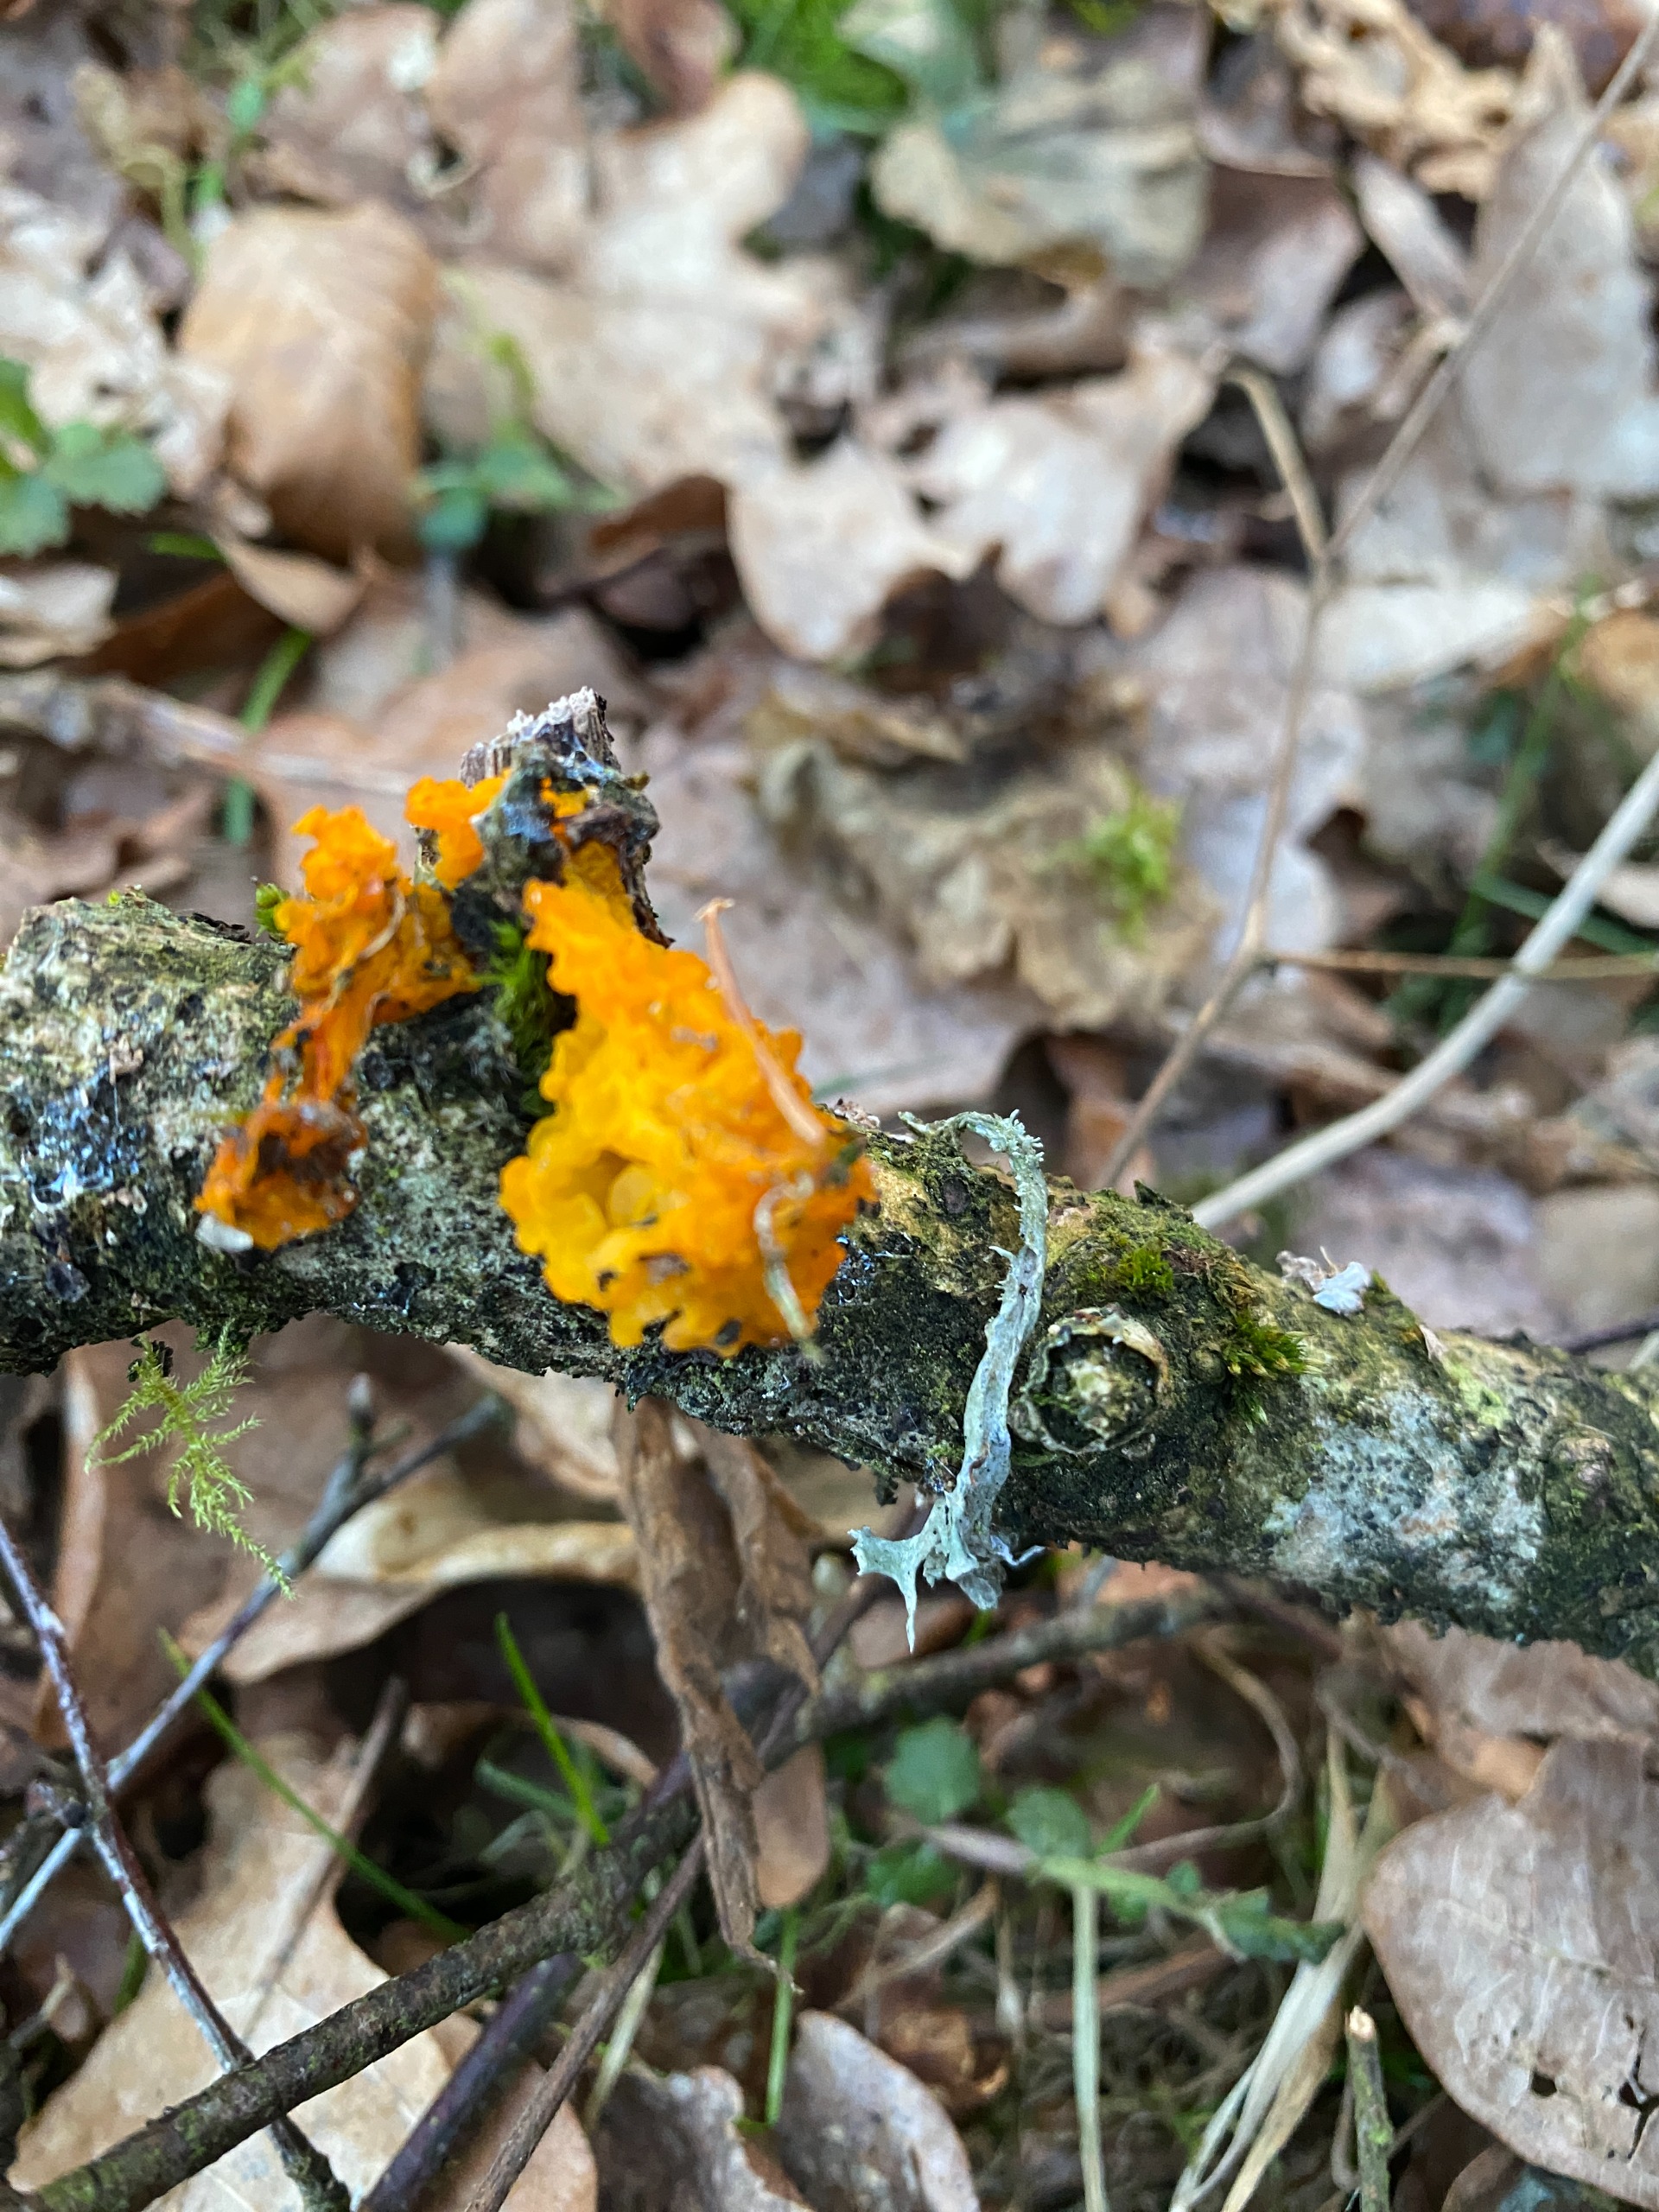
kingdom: Fungi
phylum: Basidiomycota
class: Tremellomycetes
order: Tremellales
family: Tremellaceae
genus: Tremella
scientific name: Tremella mesenterica
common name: Gul bævresvamp
